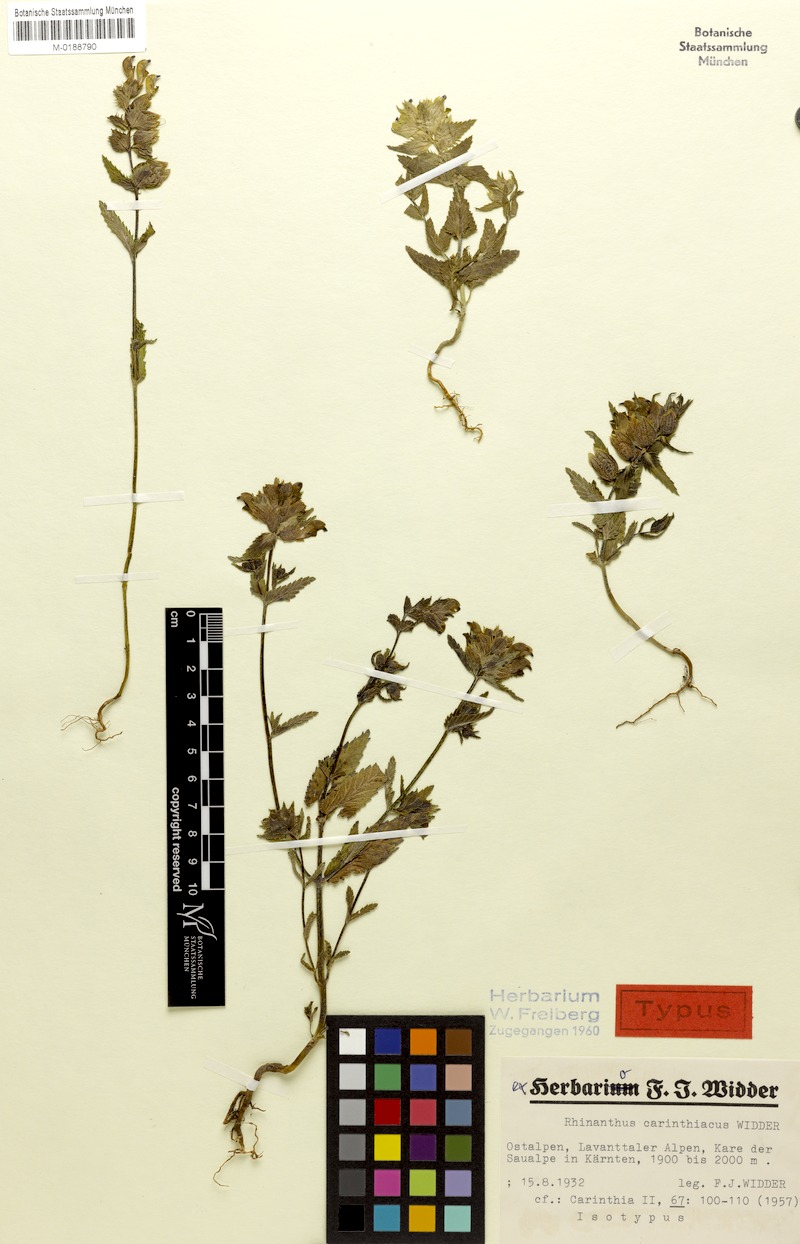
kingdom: Plantae
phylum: Tracheophyta
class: Magnoliopsida
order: Lamiales
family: Orobanchaceae
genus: Rhinanthus
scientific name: Rhinanthus carinthiacus
